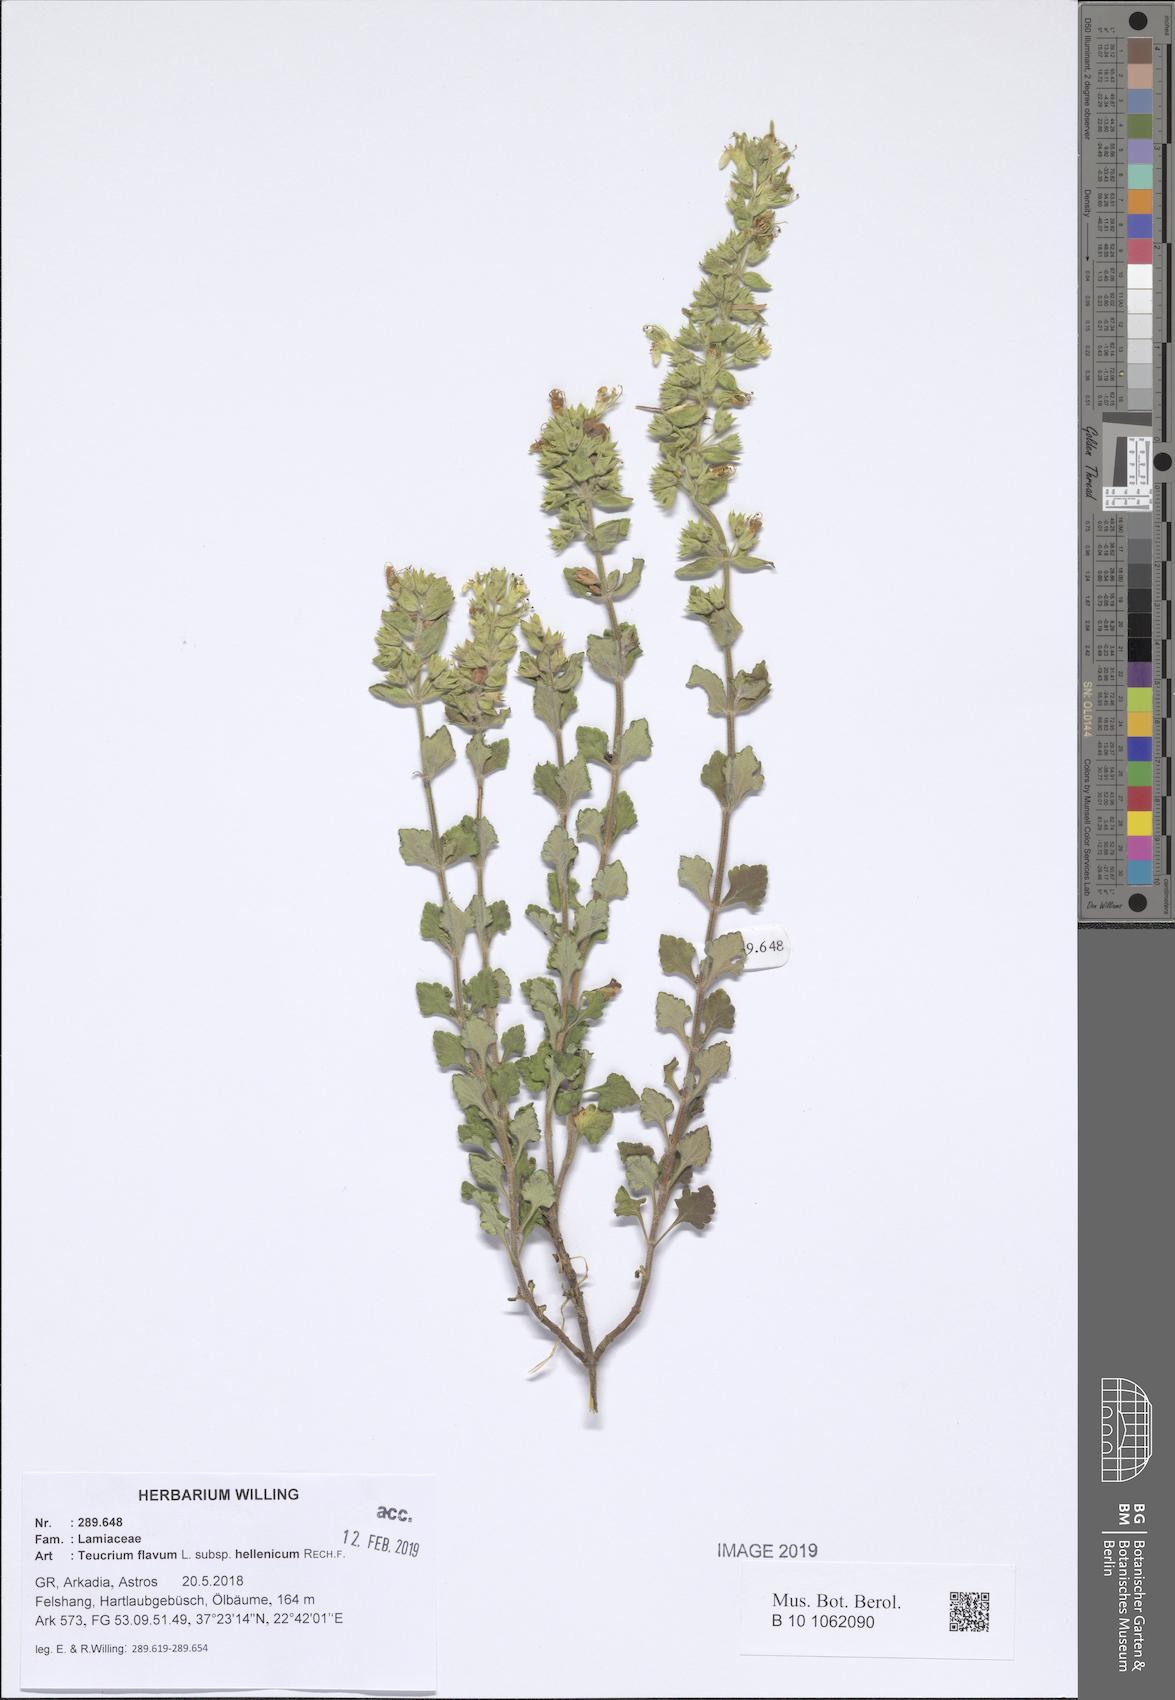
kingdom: Plantae
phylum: Tracheophyta
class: Magnoliopsida
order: Lamiales
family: Lamiaceae
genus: Teucrium
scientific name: Teucrium flavum
